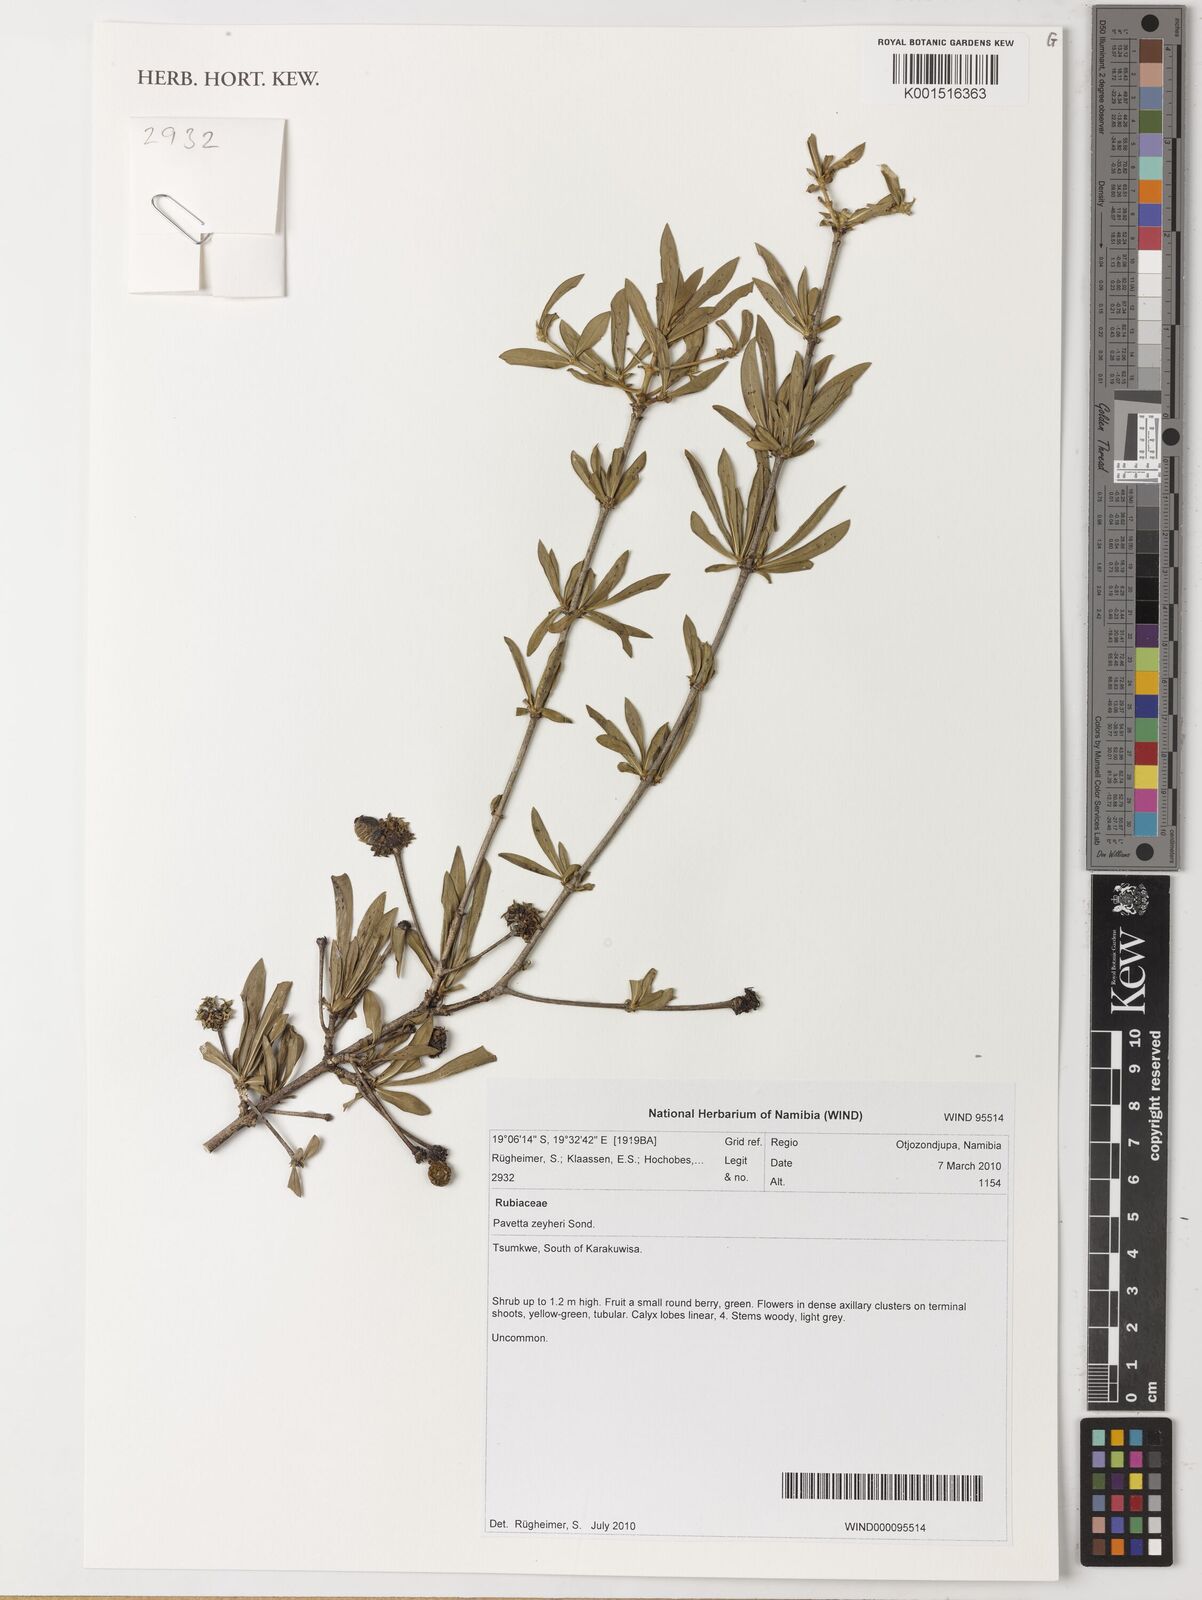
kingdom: Plantae
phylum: Tracheophyta
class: Magnoliopsida
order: Gentianales
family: Rubiaceae
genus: Pavetta
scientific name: Pavetta zeyheri
